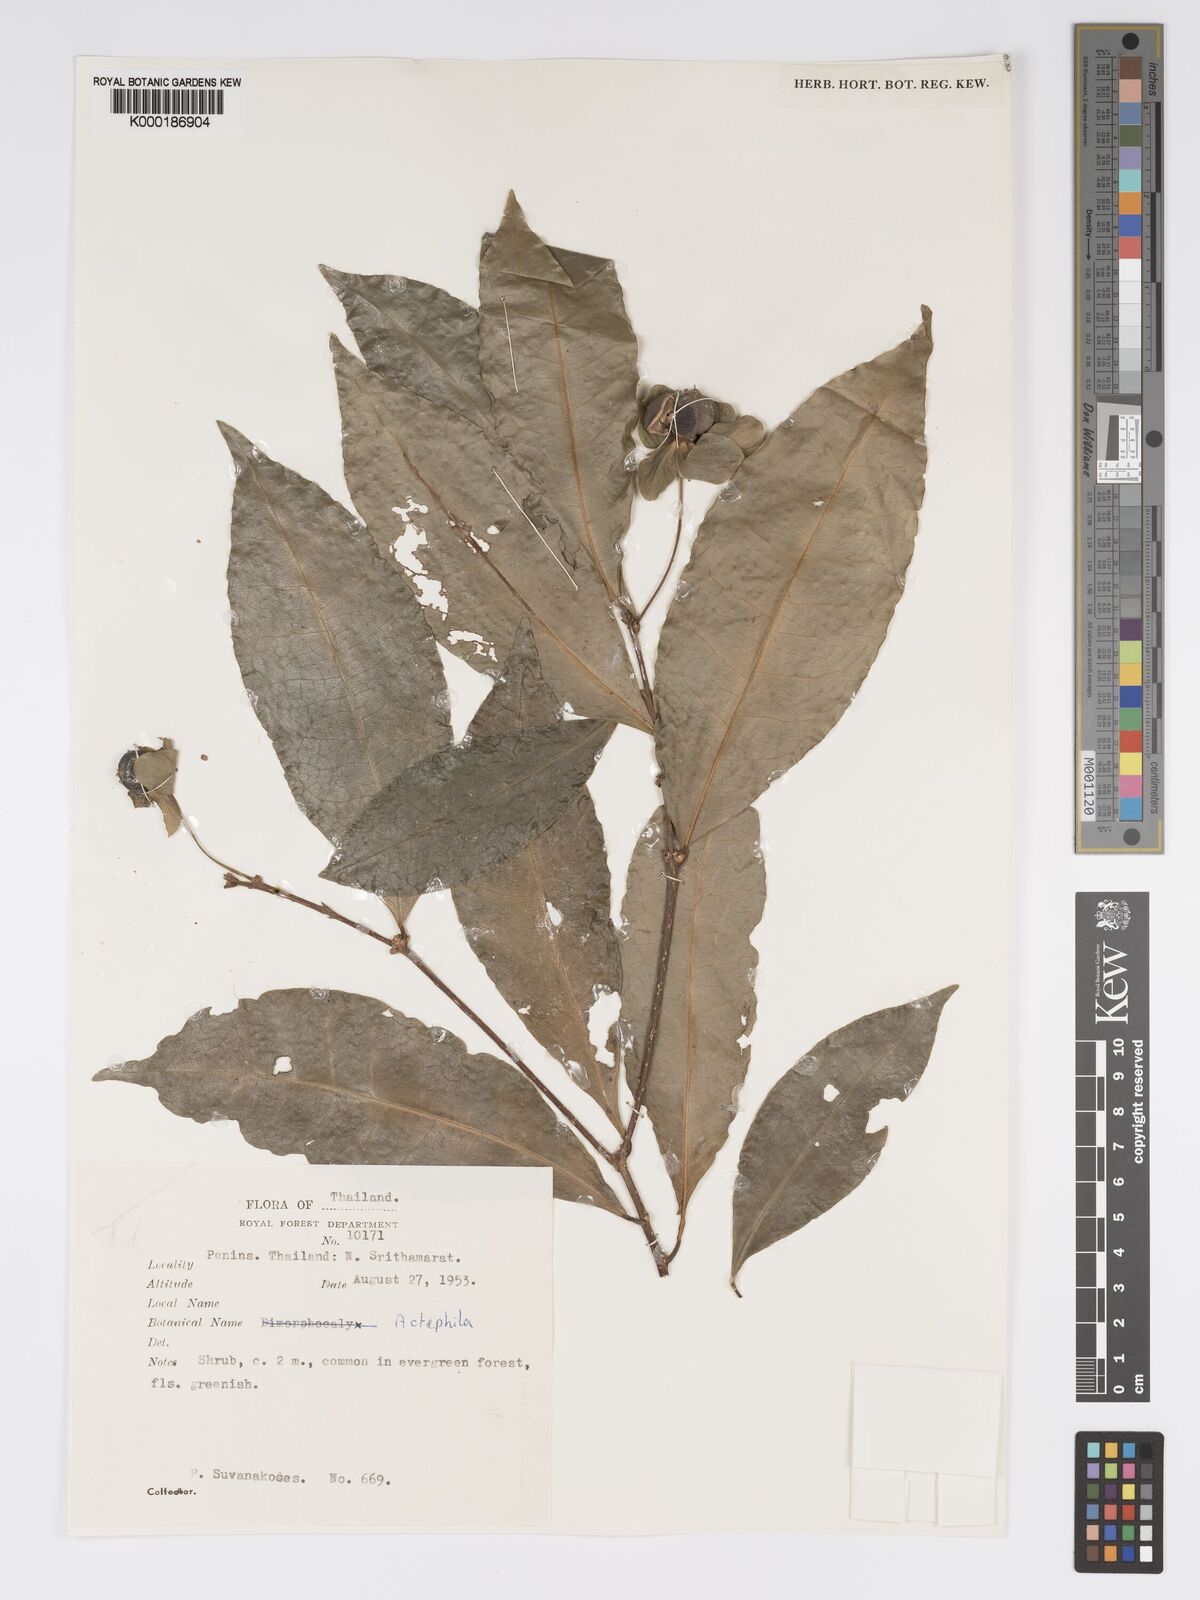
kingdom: Plantae
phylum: Tracheophyta
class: Magnoliopsida
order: Malpighiales
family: Phyllanthaceae
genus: Actephila
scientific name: Actephila ovalis
